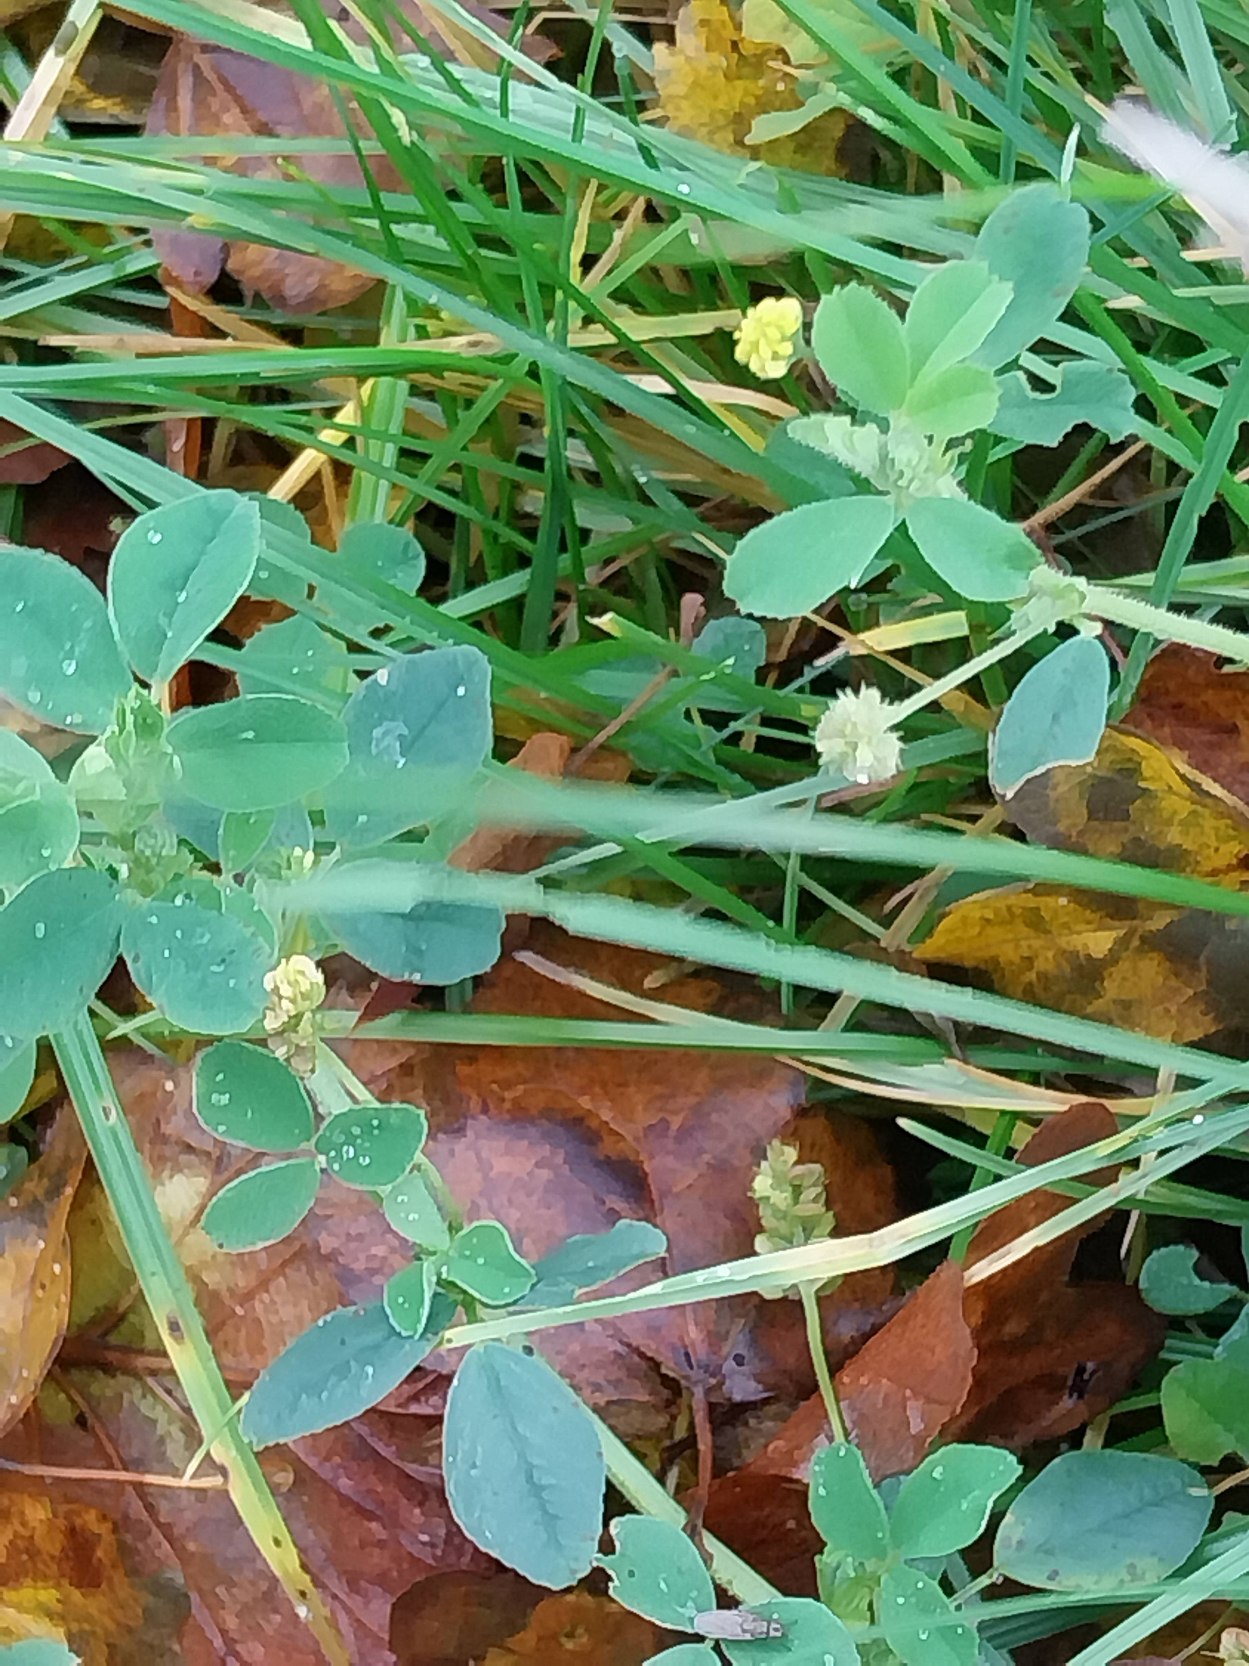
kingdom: Plantae
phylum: Tracheophyta
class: Magnoliopsida
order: Fabales
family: Fabaceae
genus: Medicago
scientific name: Medicago lupulina
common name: Humle-sneglebælg
